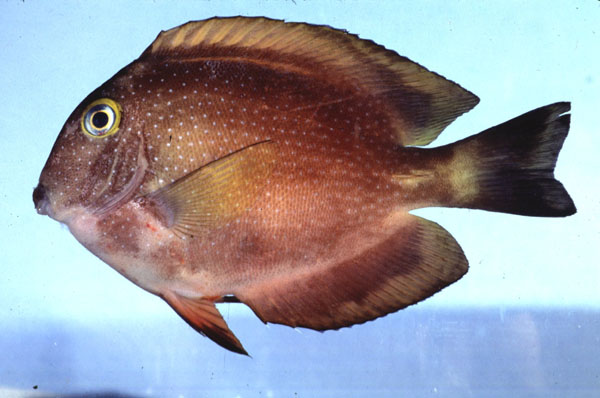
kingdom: Animalia
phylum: Chordata
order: Perciformes
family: Acanthuridae
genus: Ctenochaetus
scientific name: Ctenochaetus truncatus
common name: Indian gold-ring bristle-tooth
